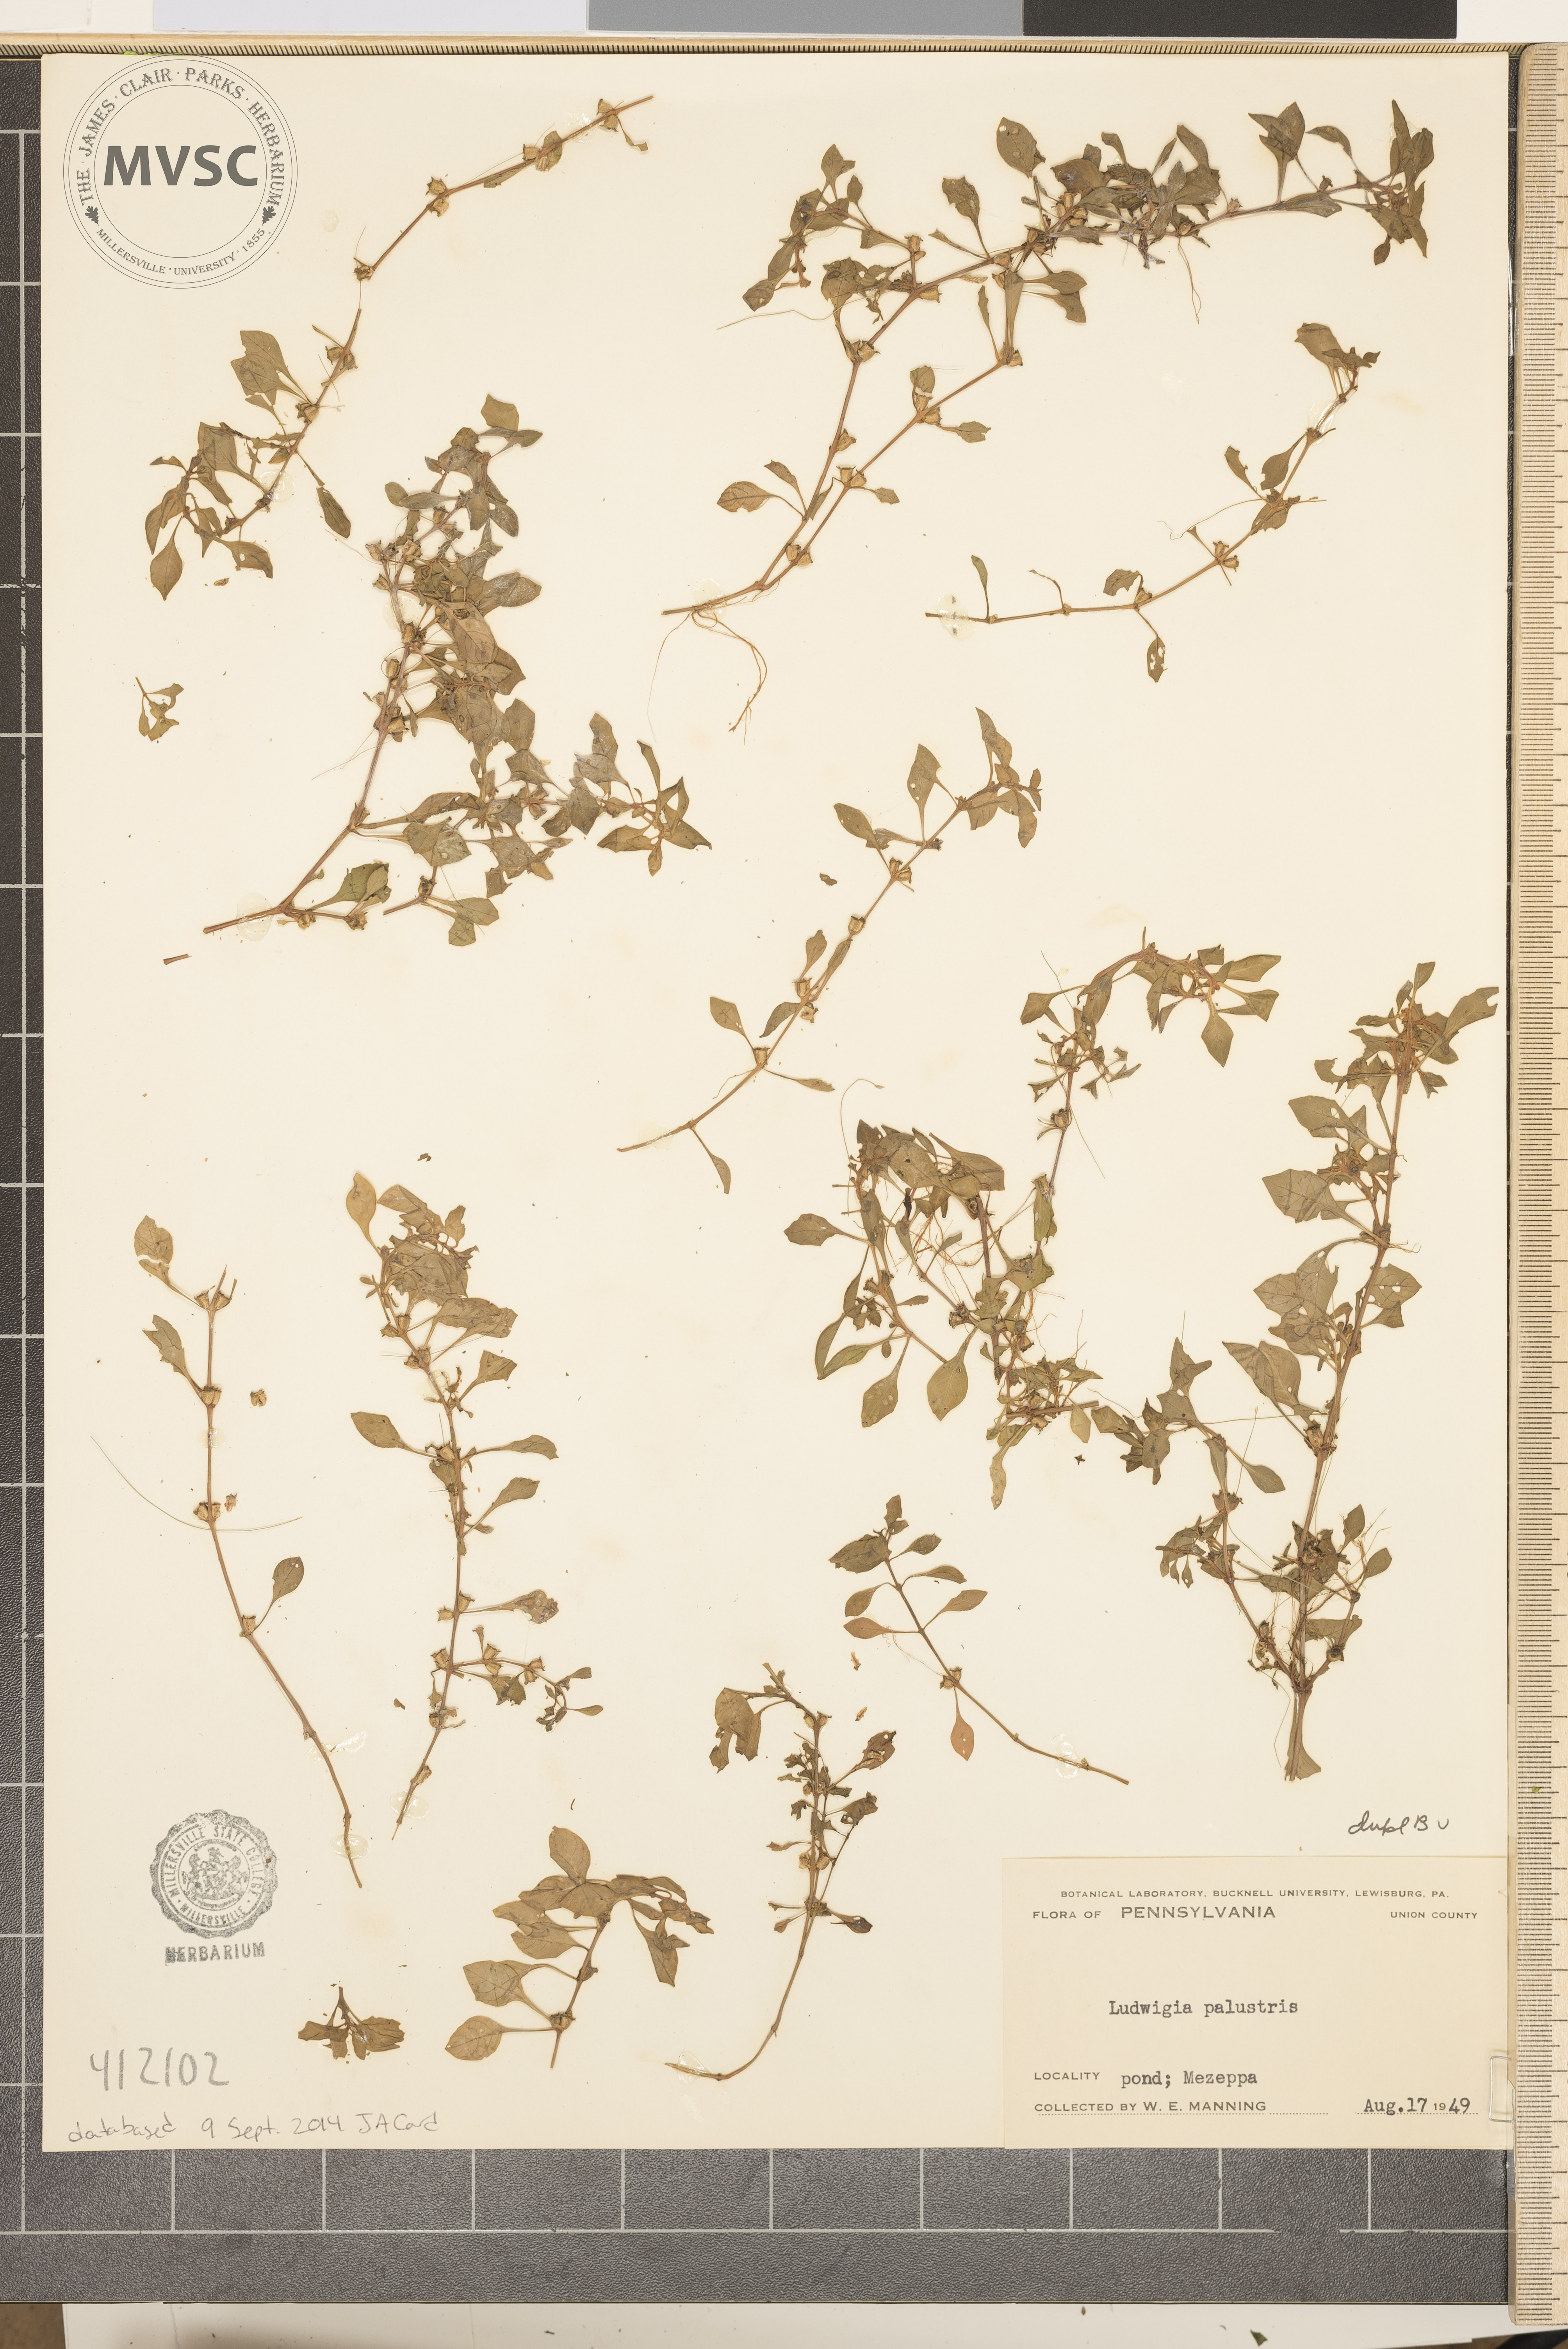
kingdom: Plantae
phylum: Tracheophyta
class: Magnoliopsida
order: Myrtales
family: Onagraceae
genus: Ludwigia
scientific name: Ludwigia palustris
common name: Hampshire-purslane
